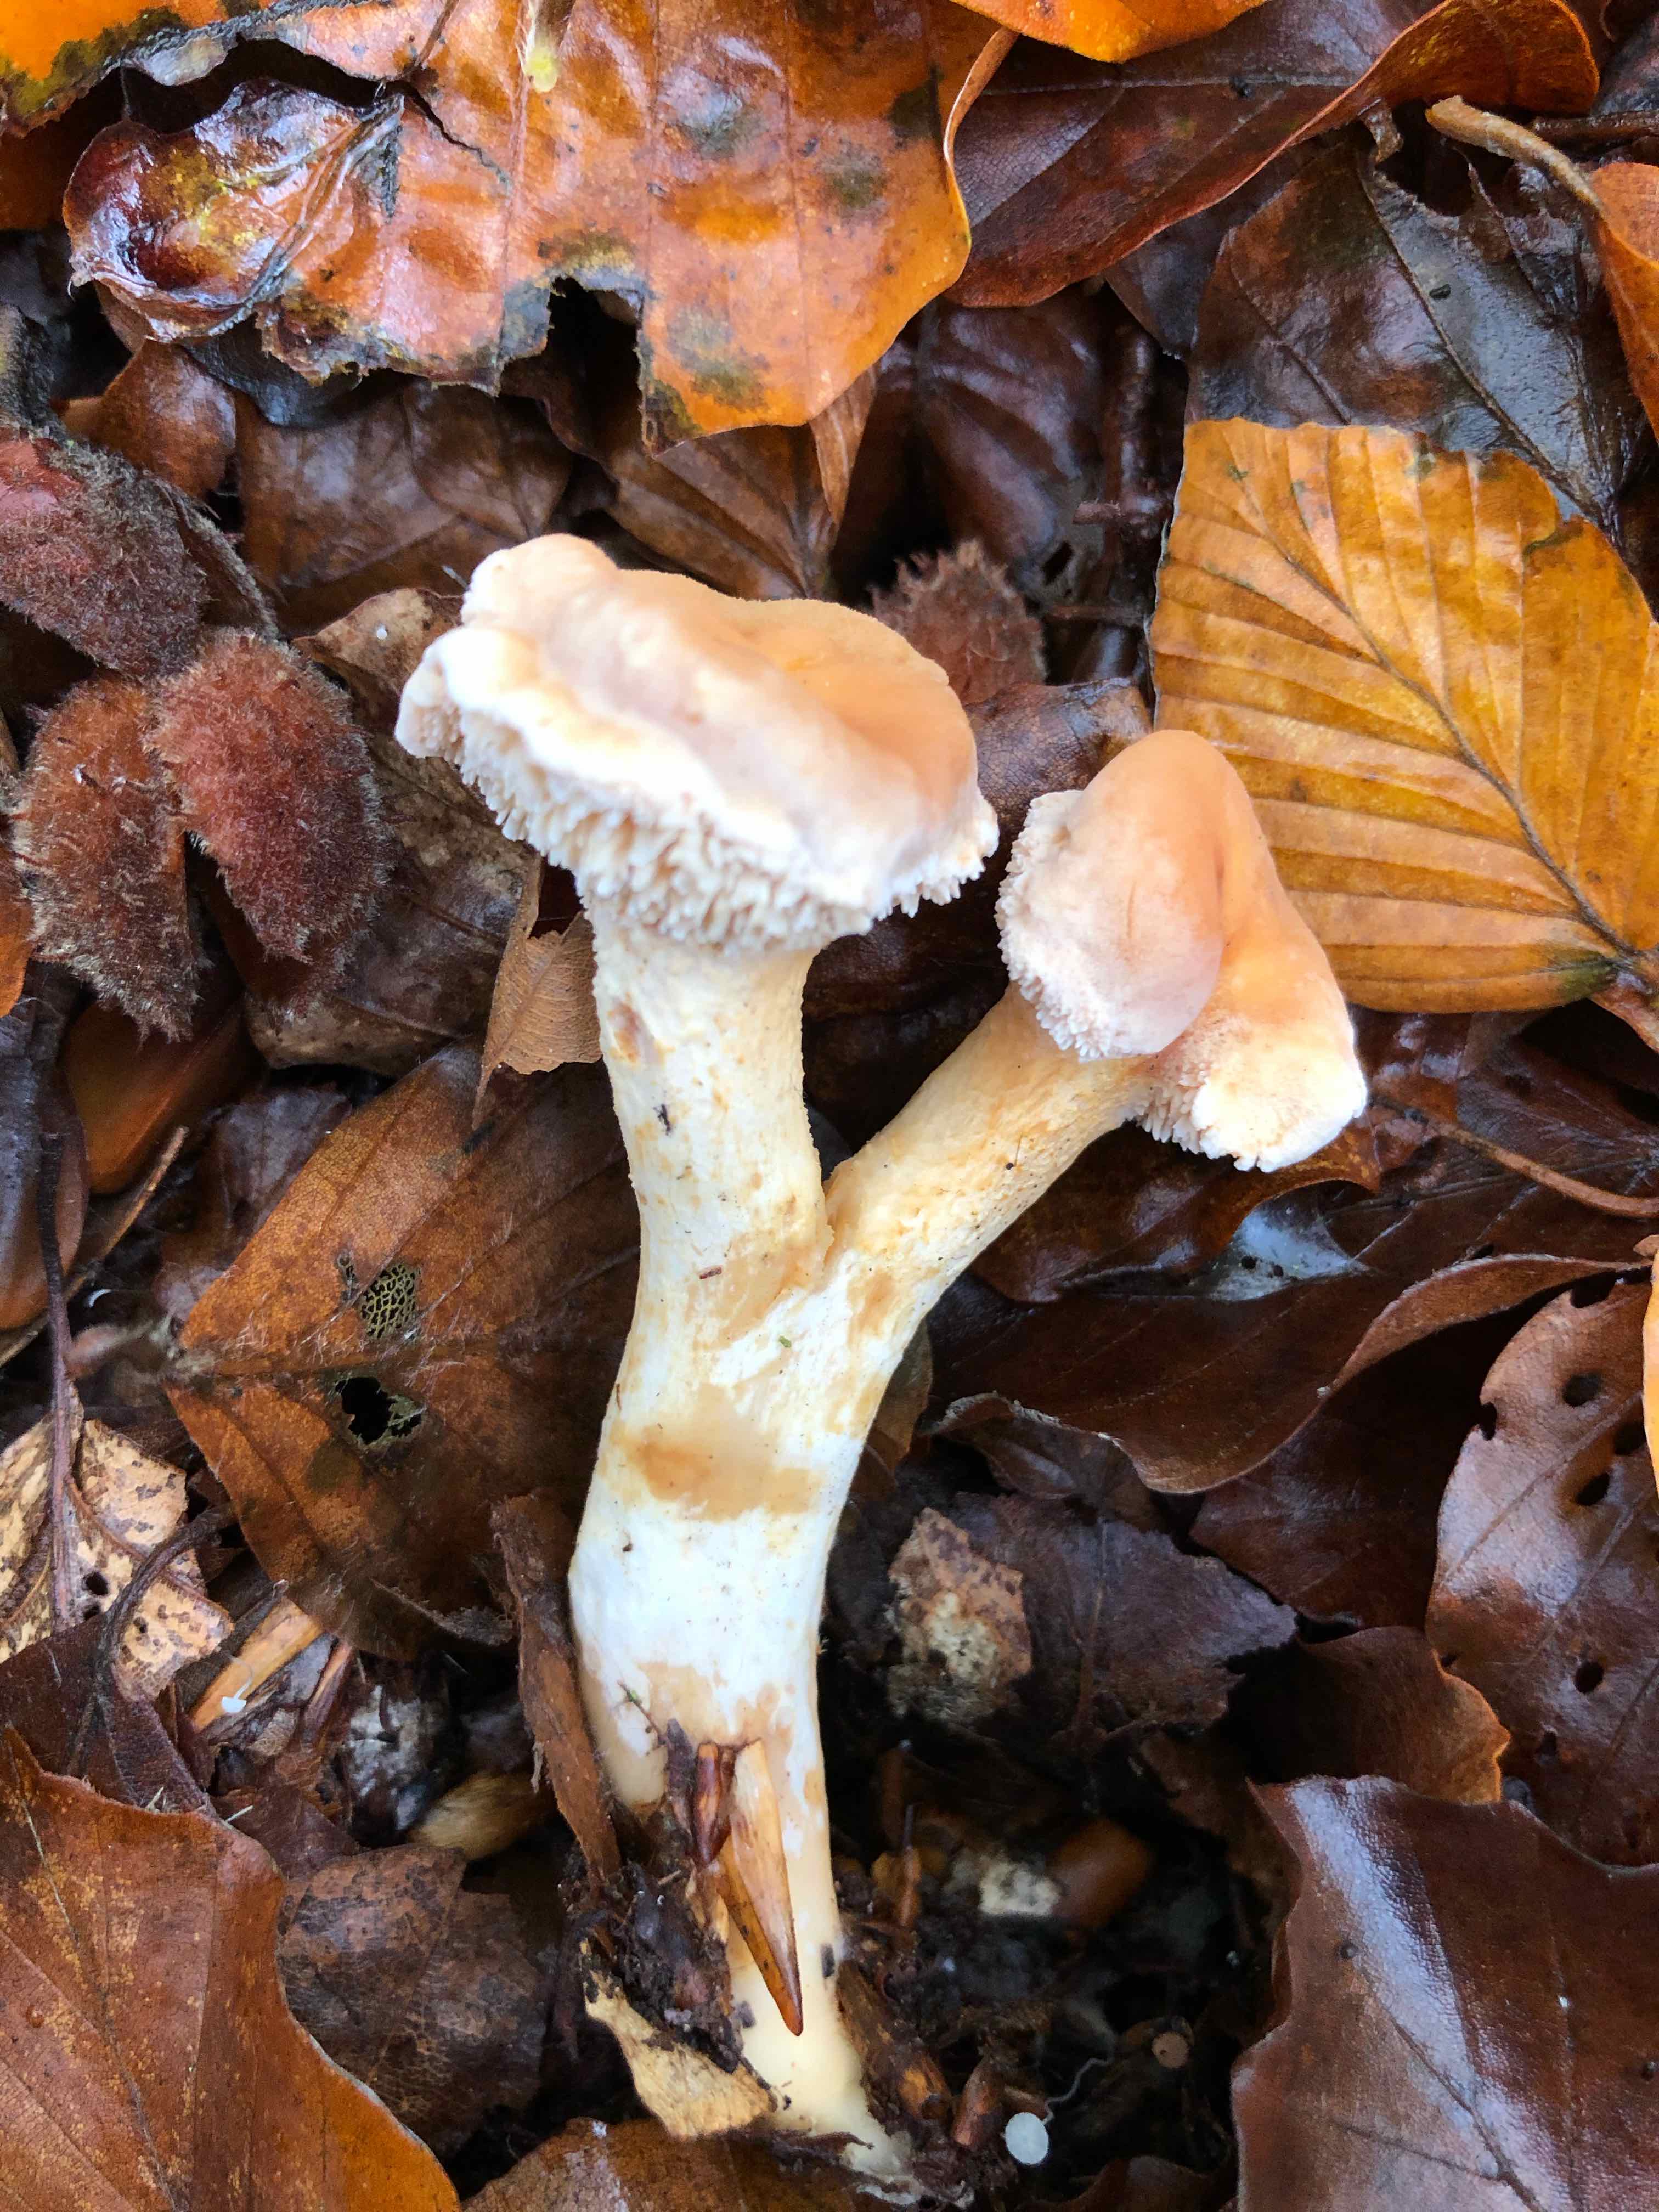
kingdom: Fungi
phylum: Basidiomycota
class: Agaricomycetes
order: Cantharellales
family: Hydnaceae
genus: Hydnum
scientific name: Hydnum
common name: pigsvamp
